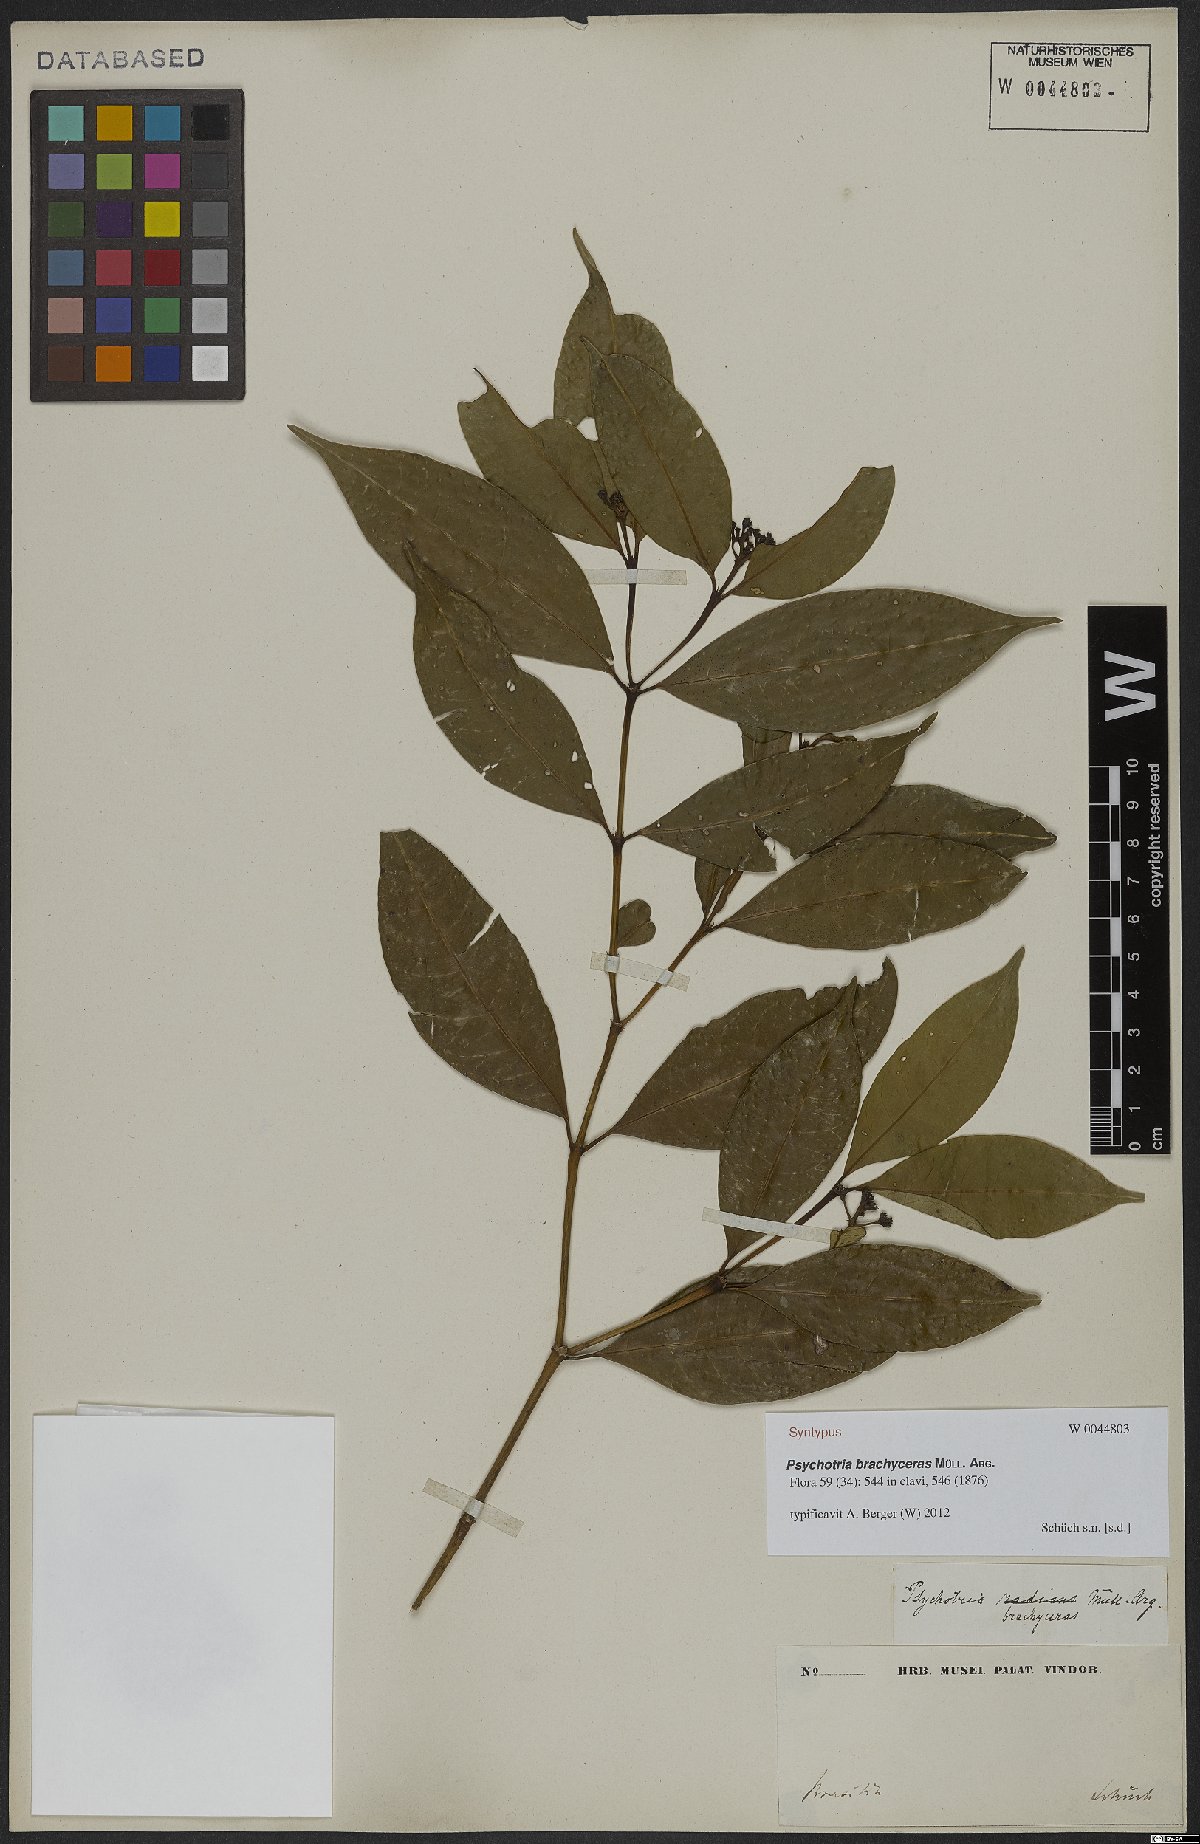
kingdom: Plantae
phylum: Tracheophyta
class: Magnoliopsida
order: Gentianales
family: Rubiaceae
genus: Psychotria
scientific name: Psychotria brachyceras
